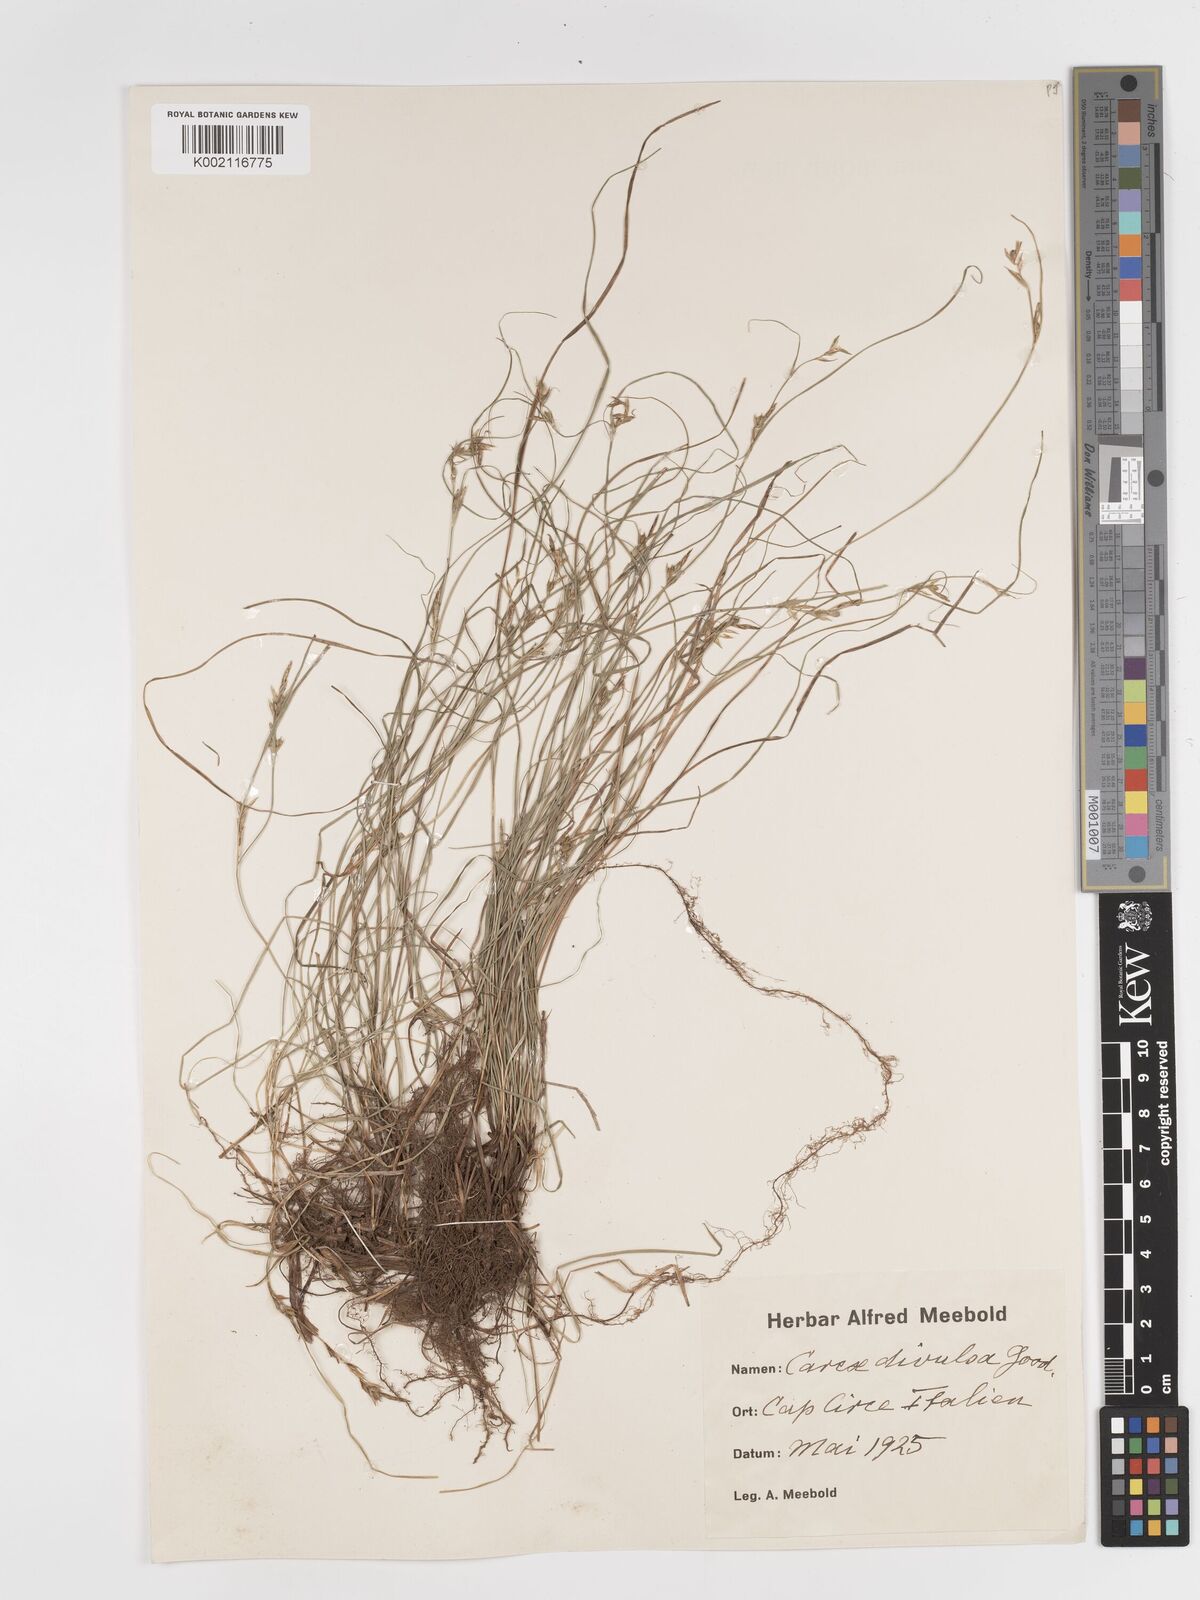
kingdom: Plantae
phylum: Tracheophyta
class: Liliopsida
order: Poales
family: Cyperaceae
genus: Carex
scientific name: Carex divulsa
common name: Grassland sedge
